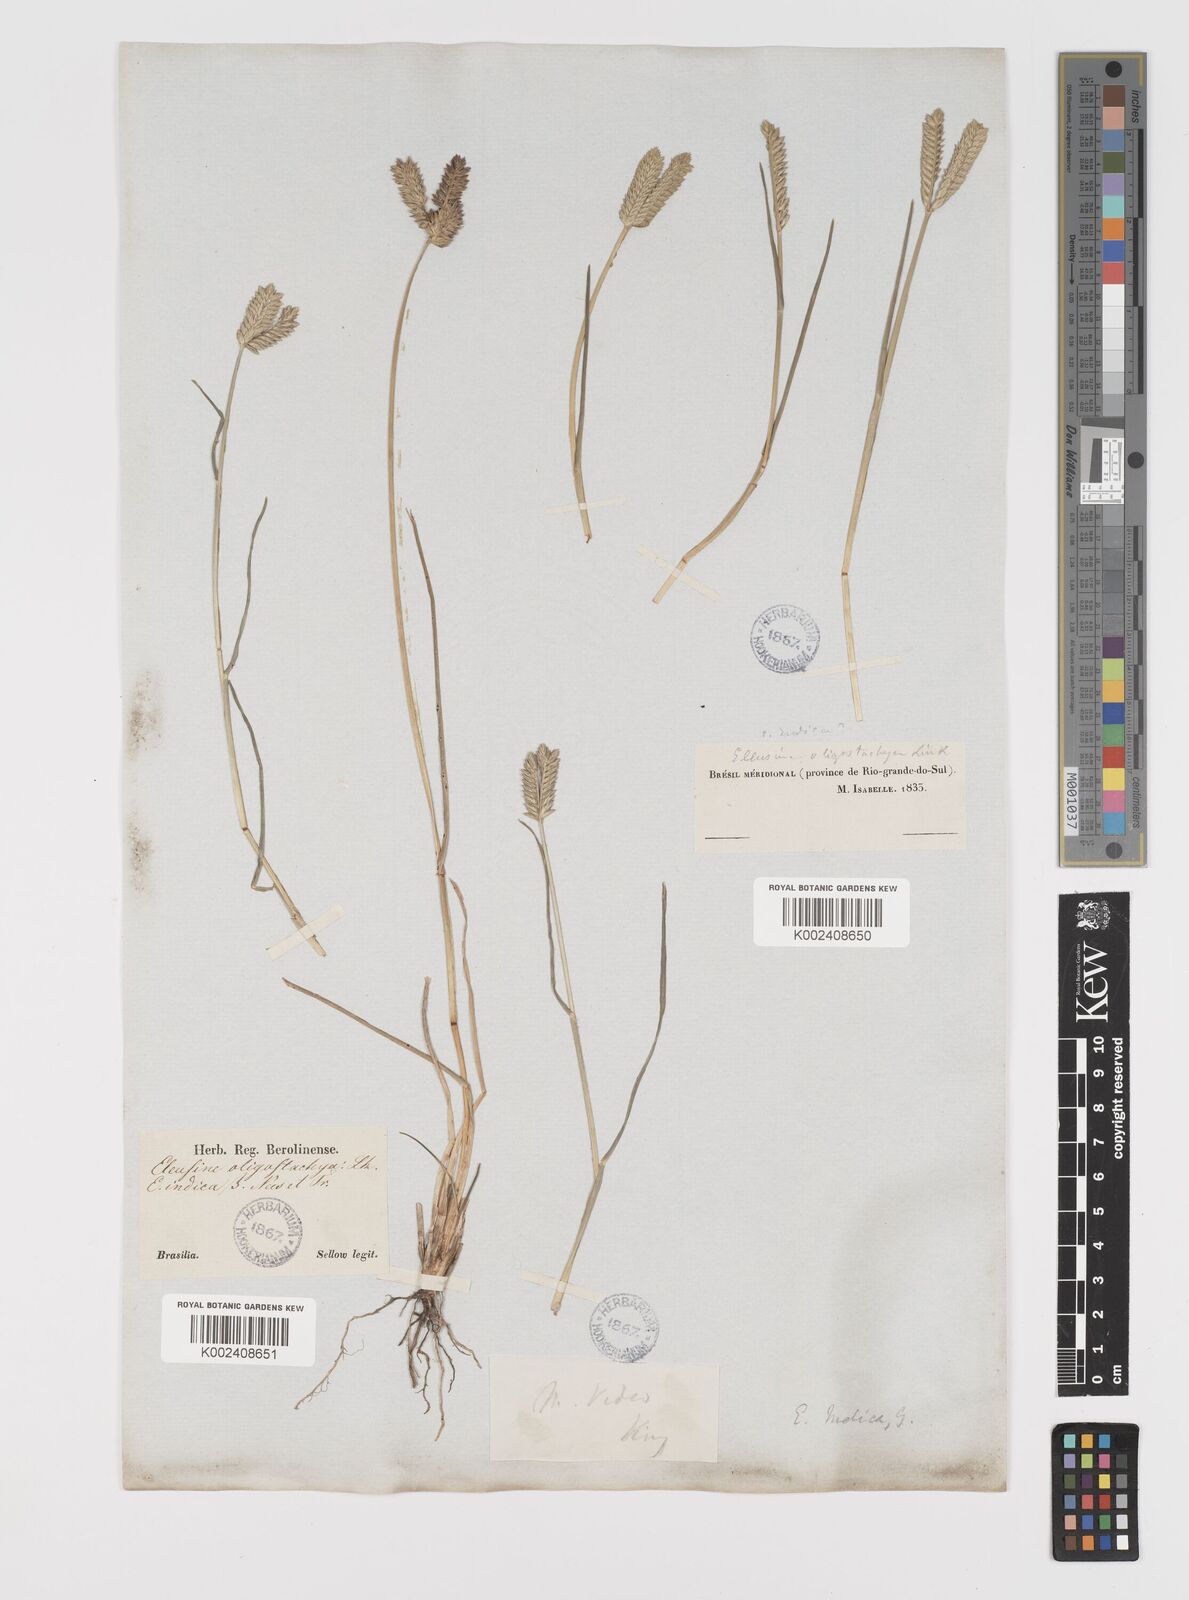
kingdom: Plantae
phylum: Tracheophyta
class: Liliopsida
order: Poales
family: Poaceae
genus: Eleusine
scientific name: Eleusine tristachya
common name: American yard-grass
